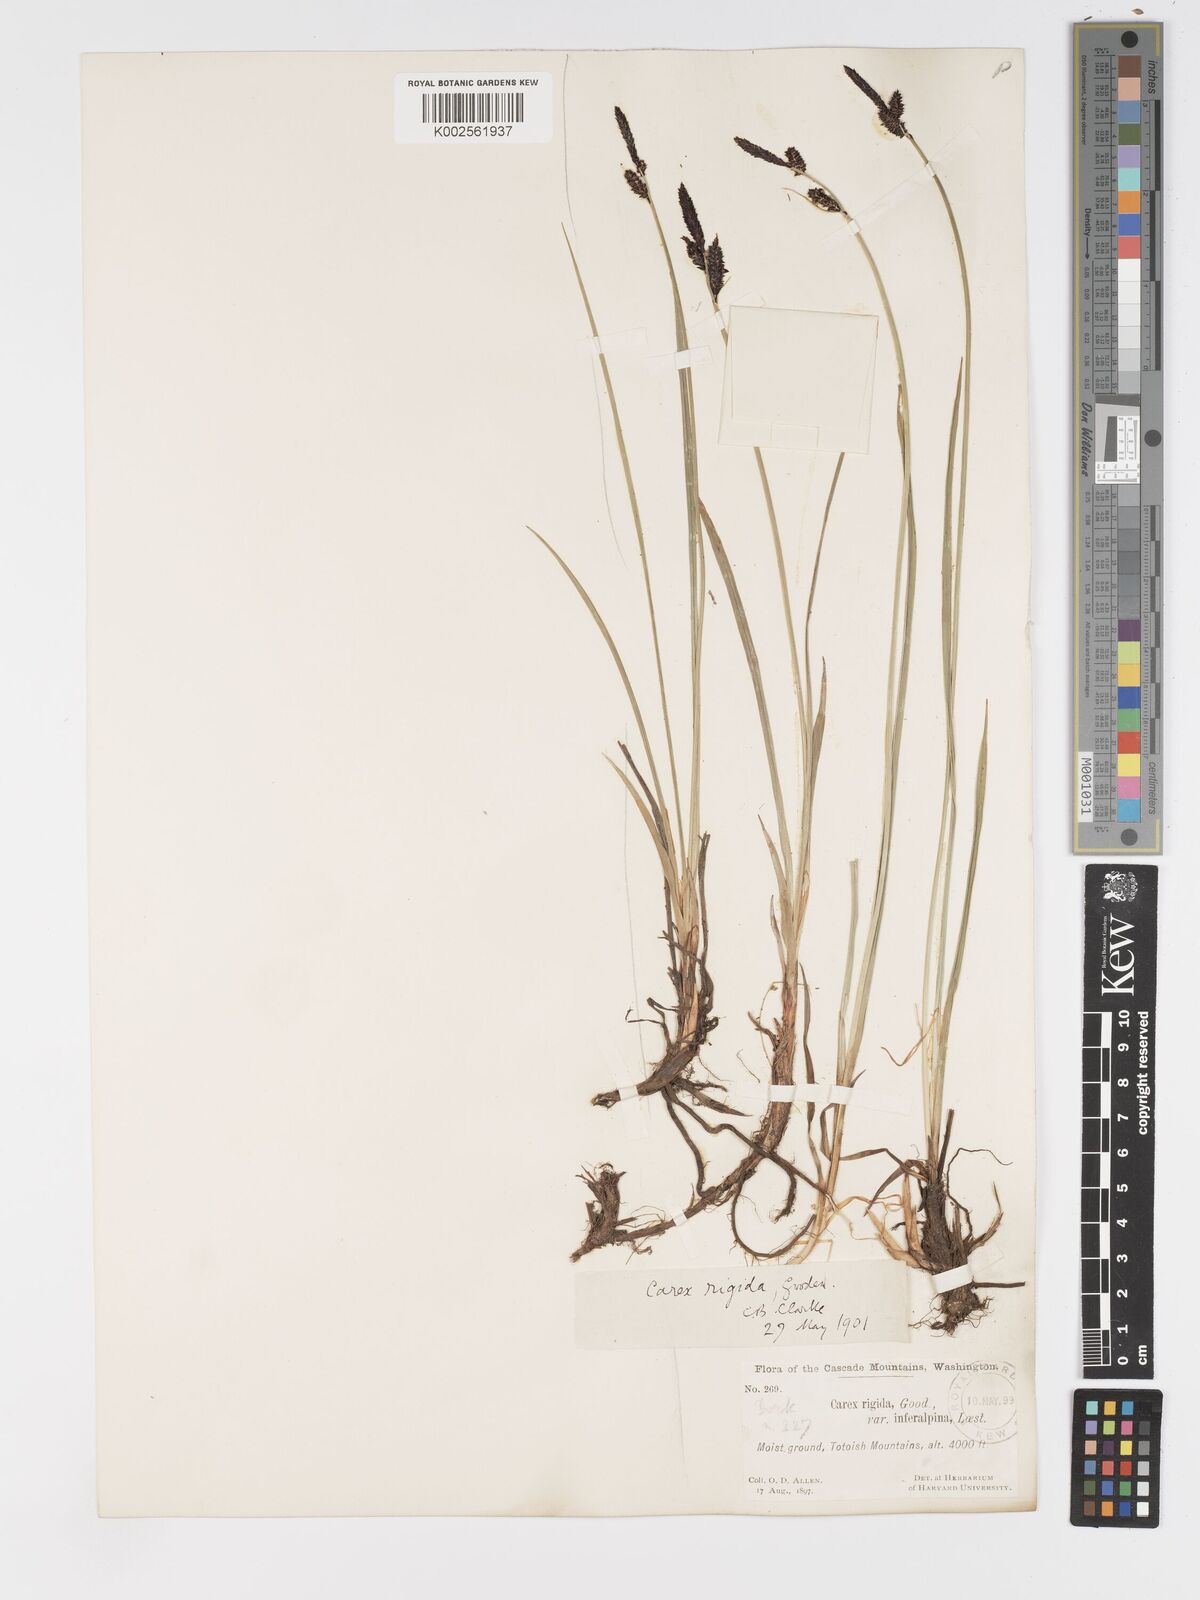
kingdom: Plantae
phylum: Tracheophyta
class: Liliopsida
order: Poales
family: Cyperaceae
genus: Carex
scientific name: Carex bigelowii
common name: Stiff sedge
